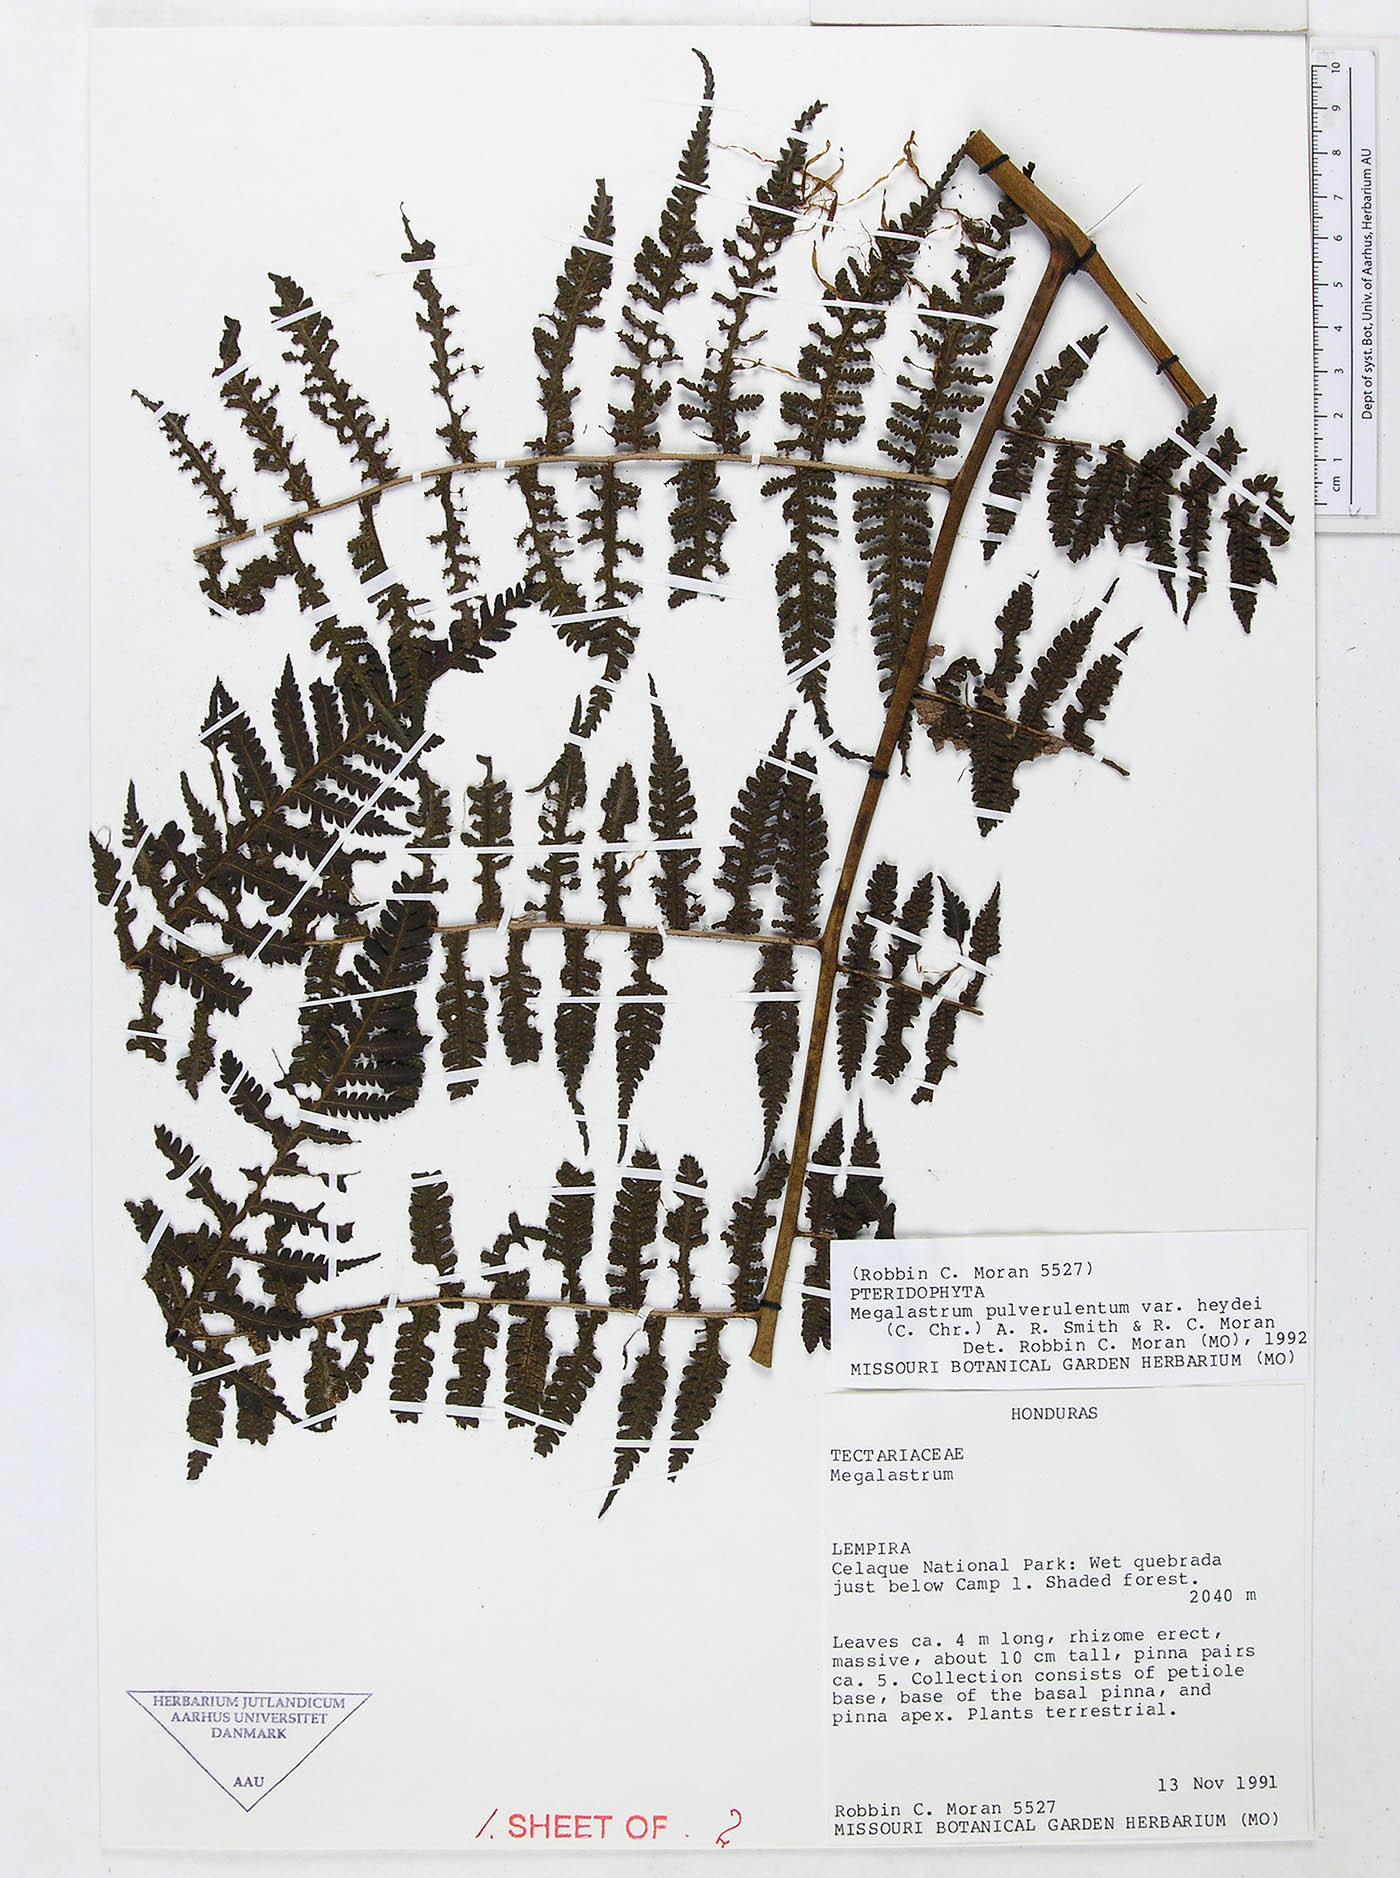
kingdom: Plantae
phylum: Tracheophyta
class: Polypodiopsida
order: Polypodiales
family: Dryopteridaceae
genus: Megalastrum
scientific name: Megalastrum sparsipilosum
